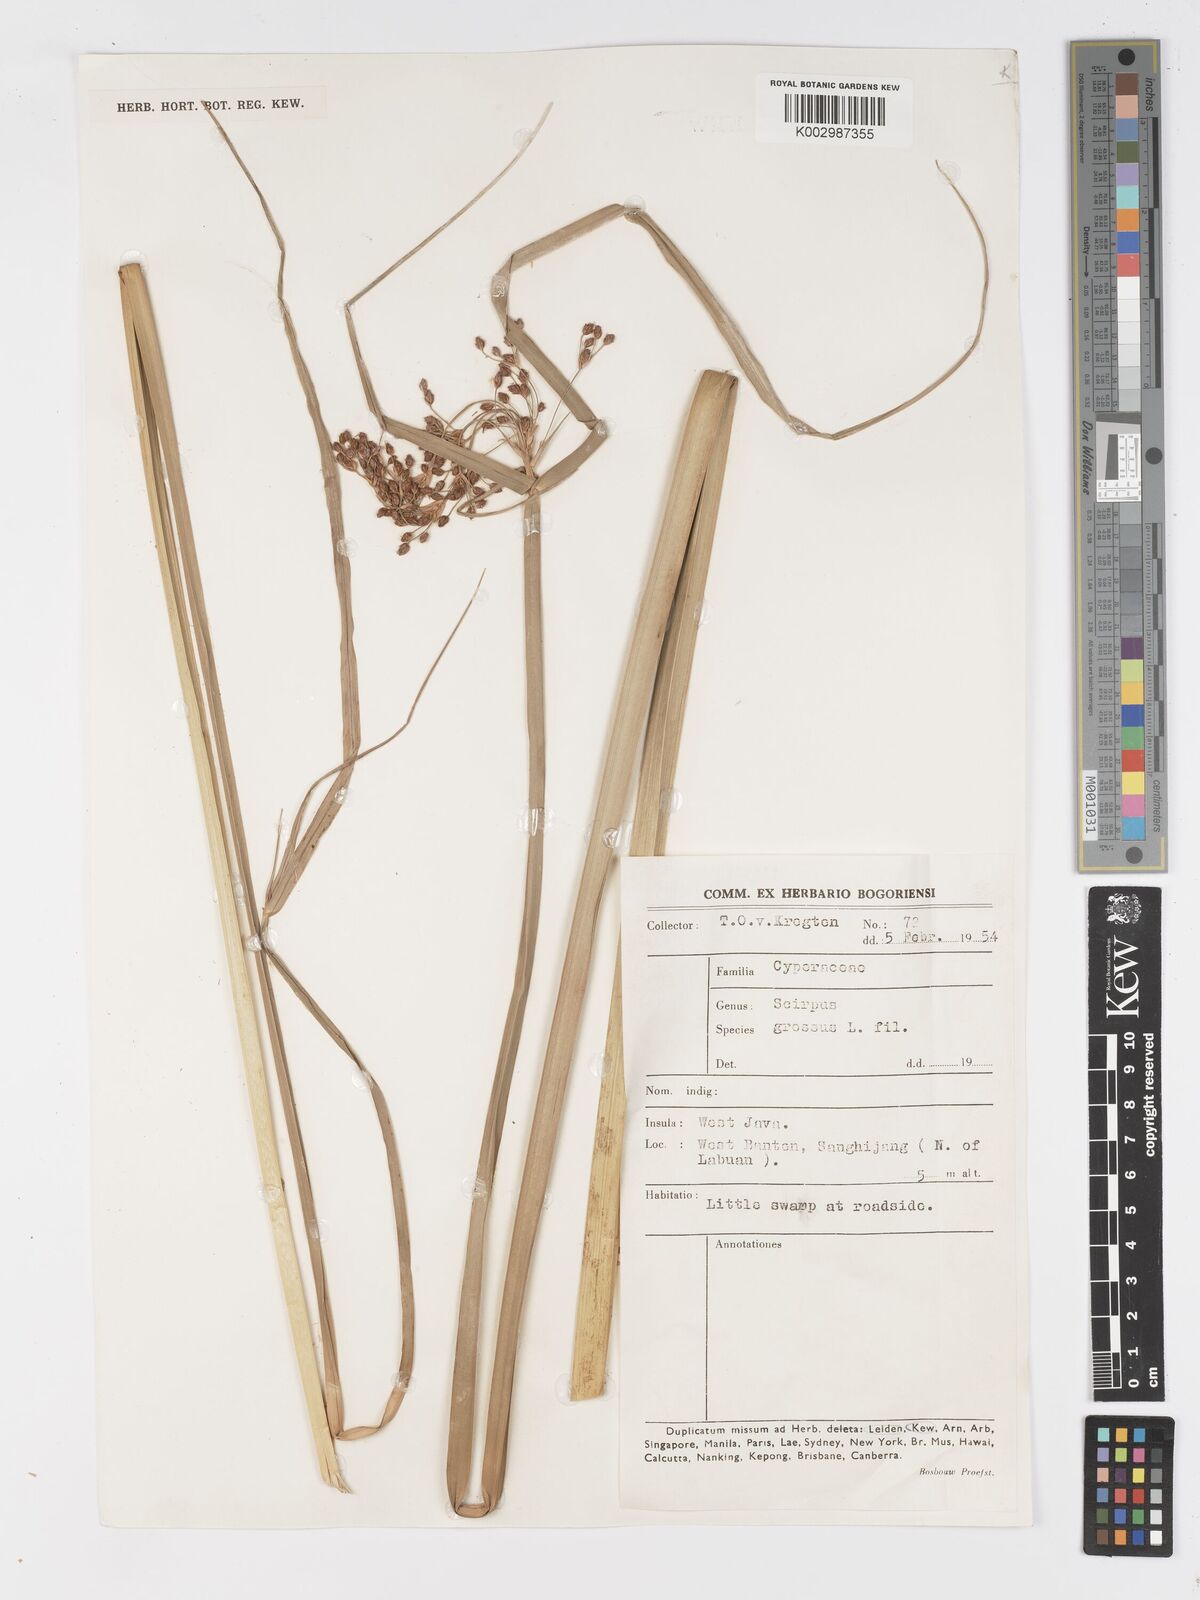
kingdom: Plantae
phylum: Tracheophyta
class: Liliopsida
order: Poales
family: Cyperaceae
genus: Actinoscirpus
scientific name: Actinoscirpus grossus
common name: Giant bur rush
